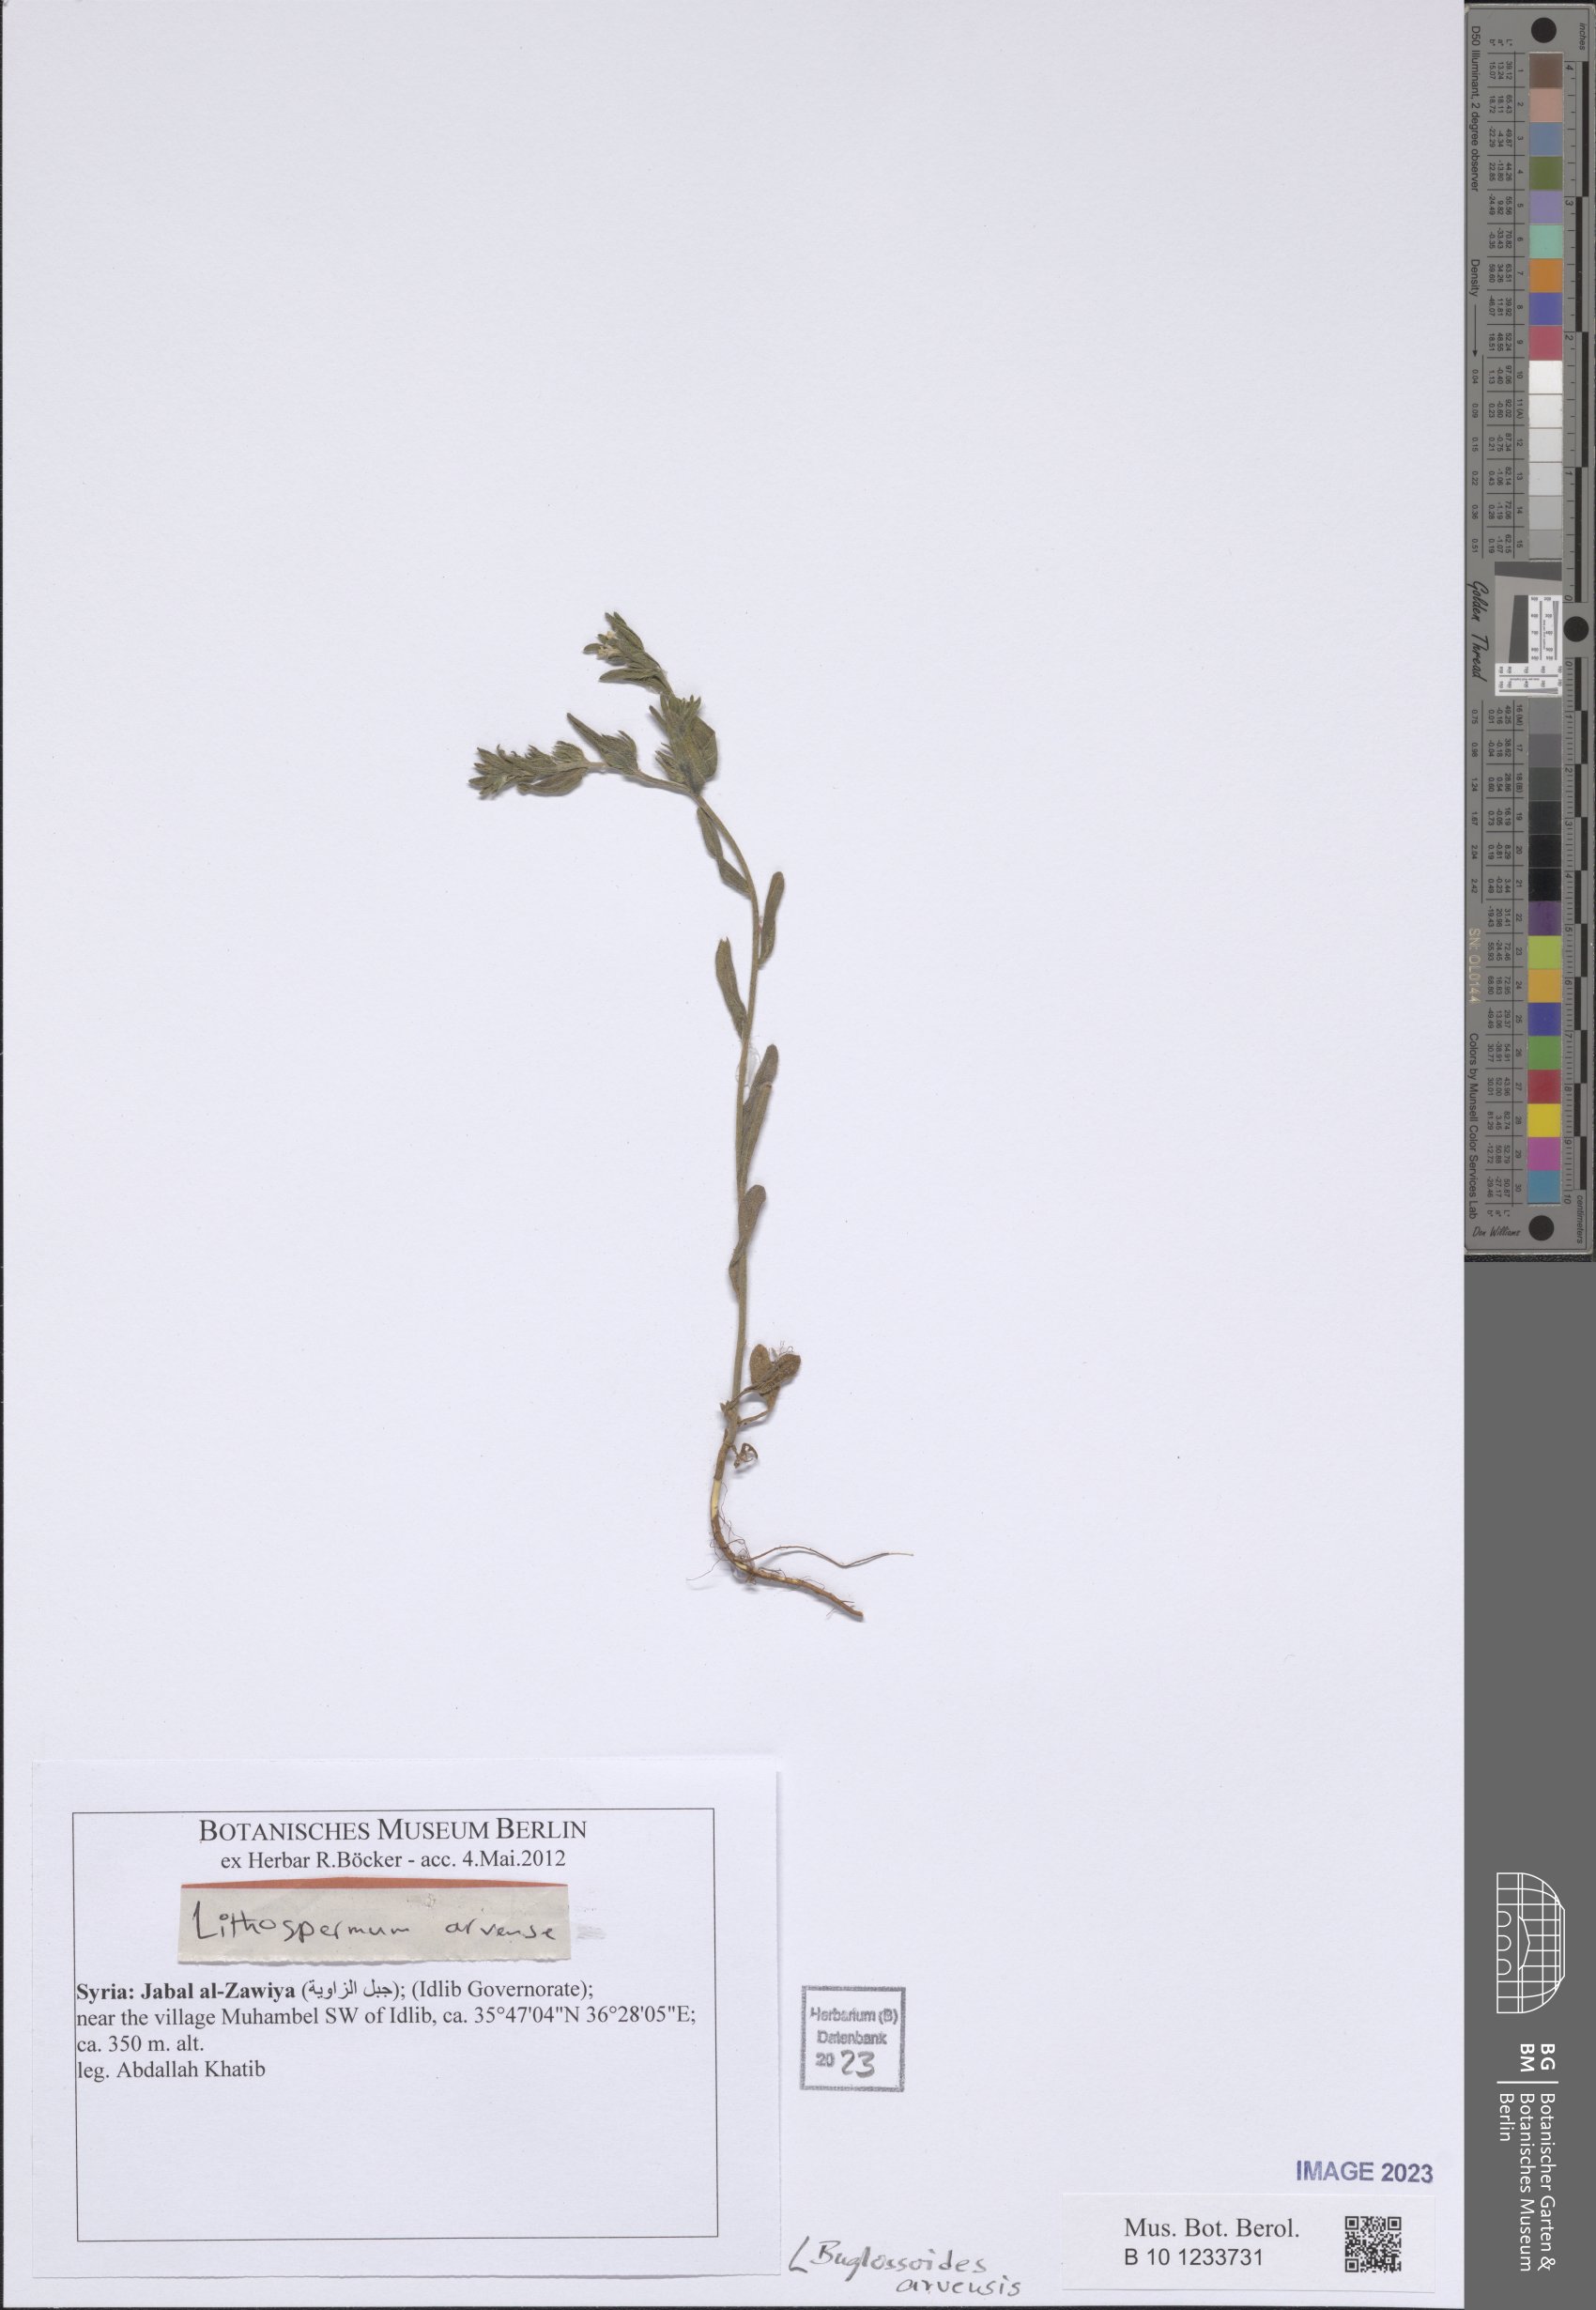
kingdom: Plantae
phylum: Tracheophyta
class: Magnoliopsida
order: Boraginales
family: Boraginaceae
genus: Buglossoides
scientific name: Buglossoides arvensis
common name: Corn gromwell
